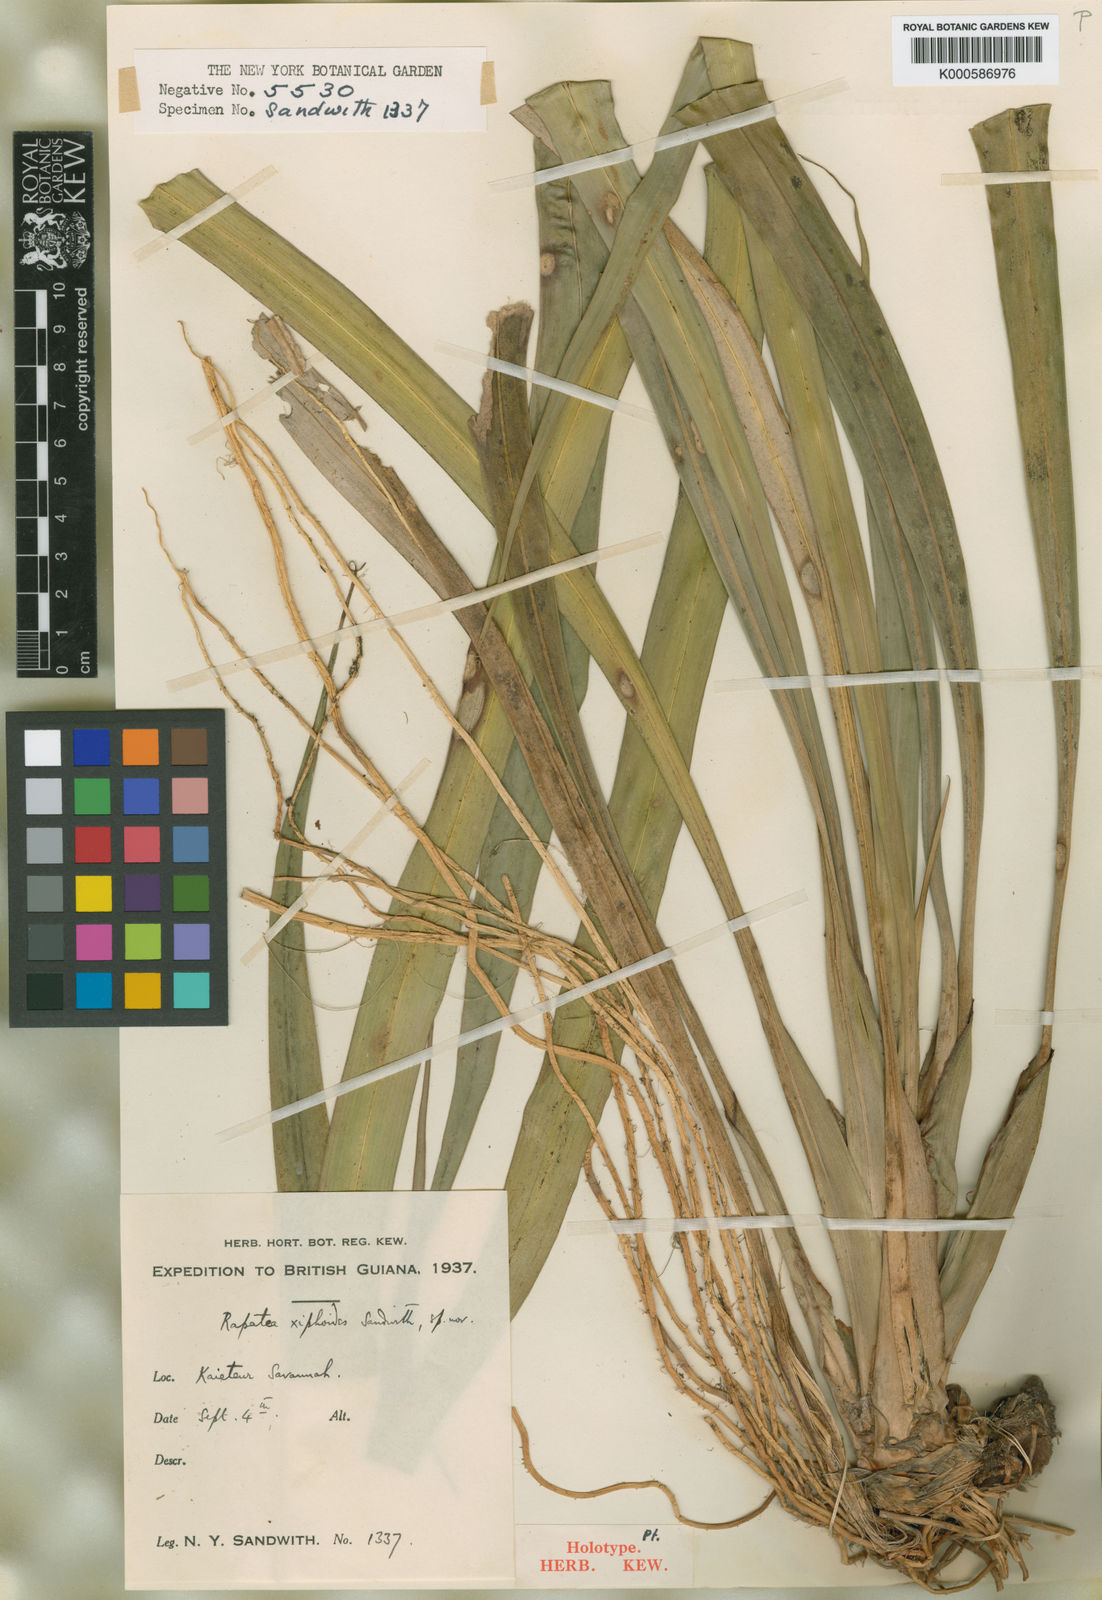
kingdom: Plantae
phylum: Tracheophyta
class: Liliopsida
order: Poales
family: Rapateaceae
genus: Rapatea
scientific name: Rapatea xiphoides
